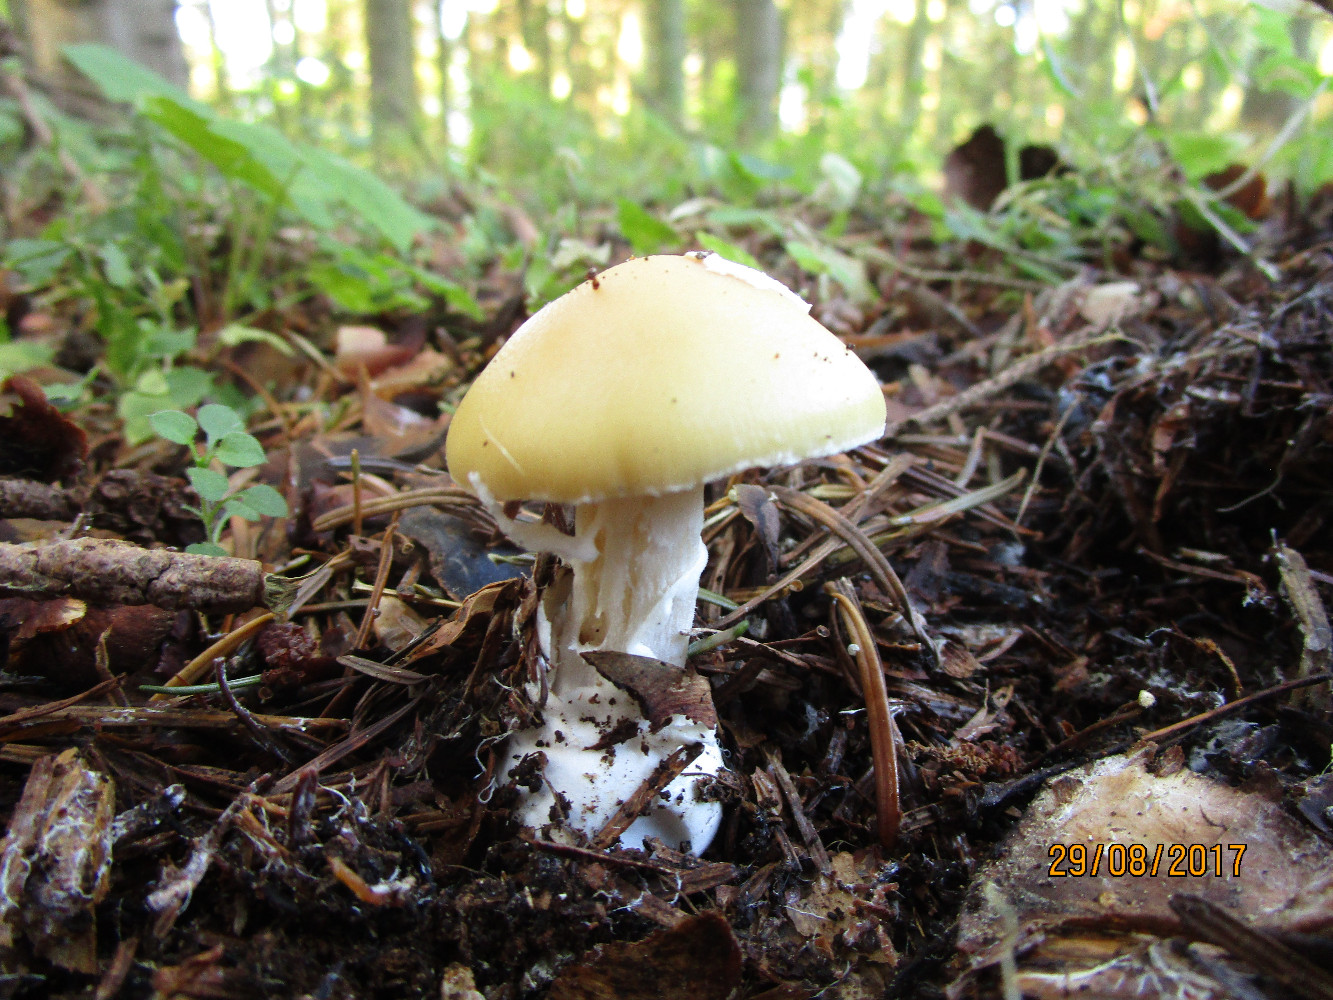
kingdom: Fungi
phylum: Basidiomycota
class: Agaricomycetes
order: Agaricales
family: Amanitaceae
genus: Amanita
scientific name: Amanita gemmata
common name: okkergul fluesvamp
